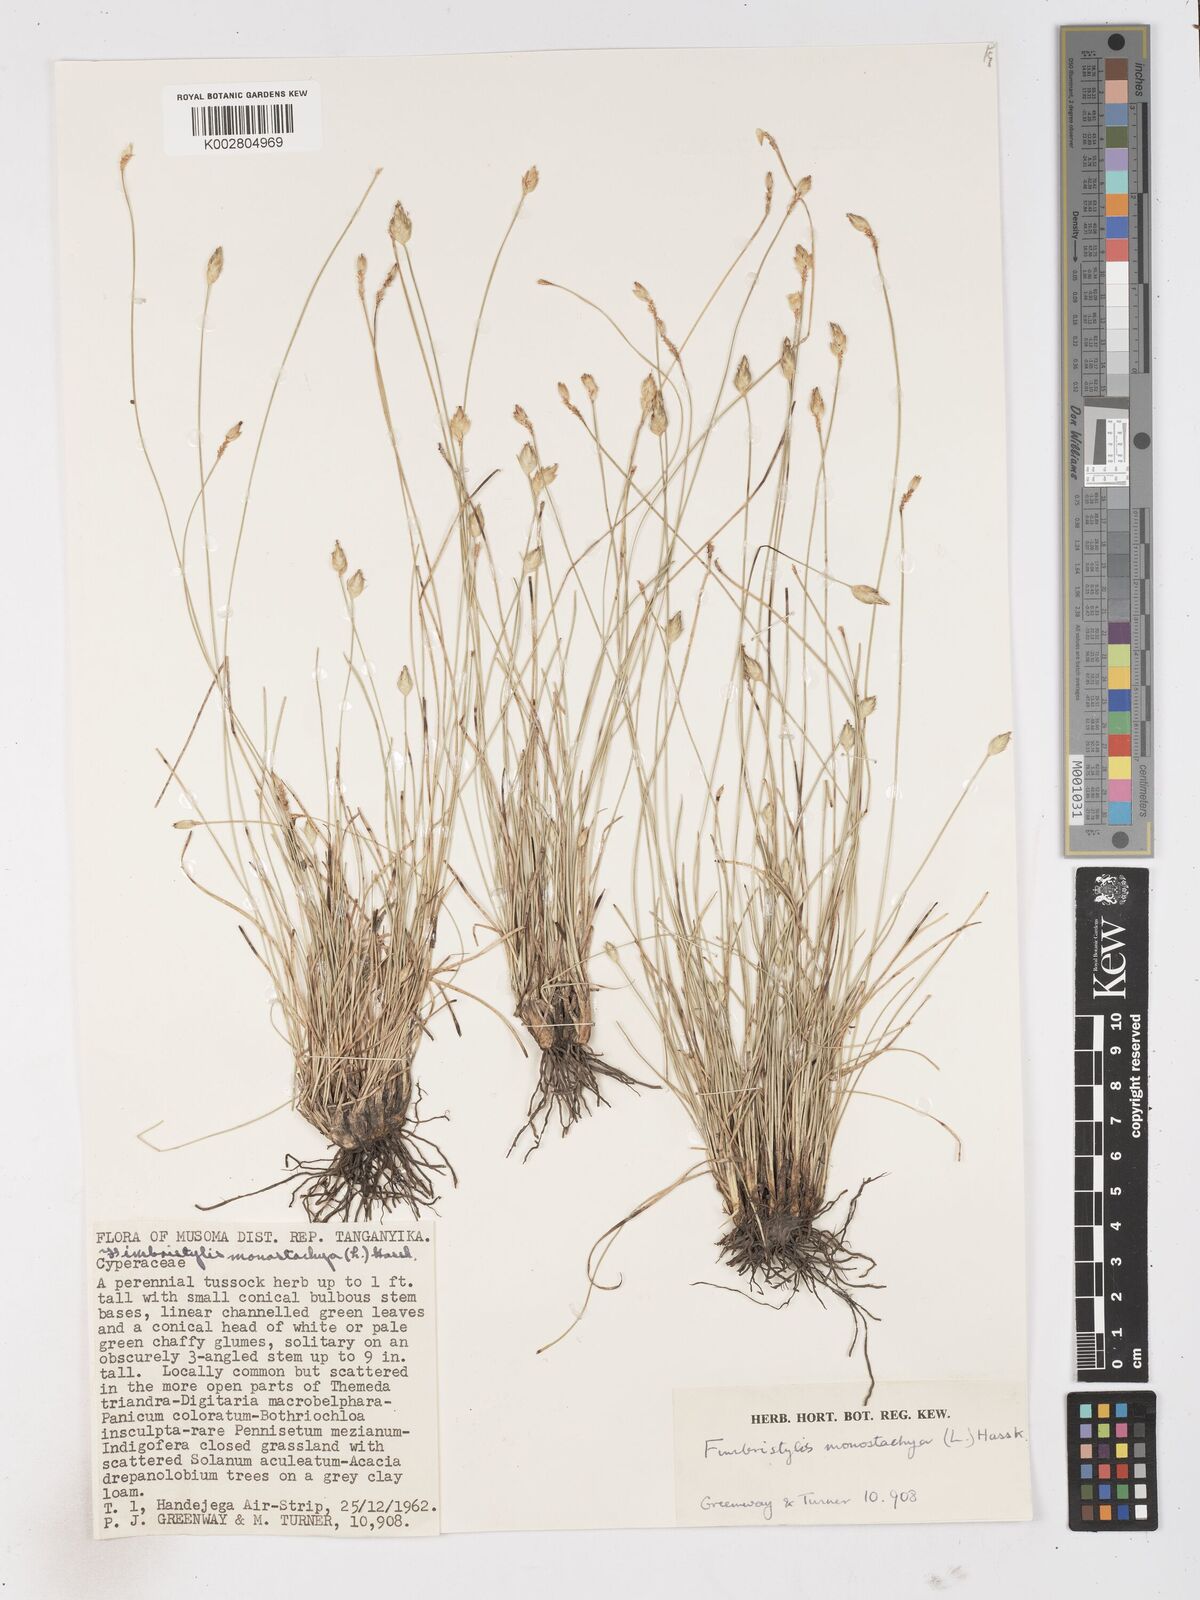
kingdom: Plantae
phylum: Tracheophyta
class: Liliopsida
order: Poales
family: Cyperaceae
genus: Abildgaardia
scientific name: Abildgaardia ovata
